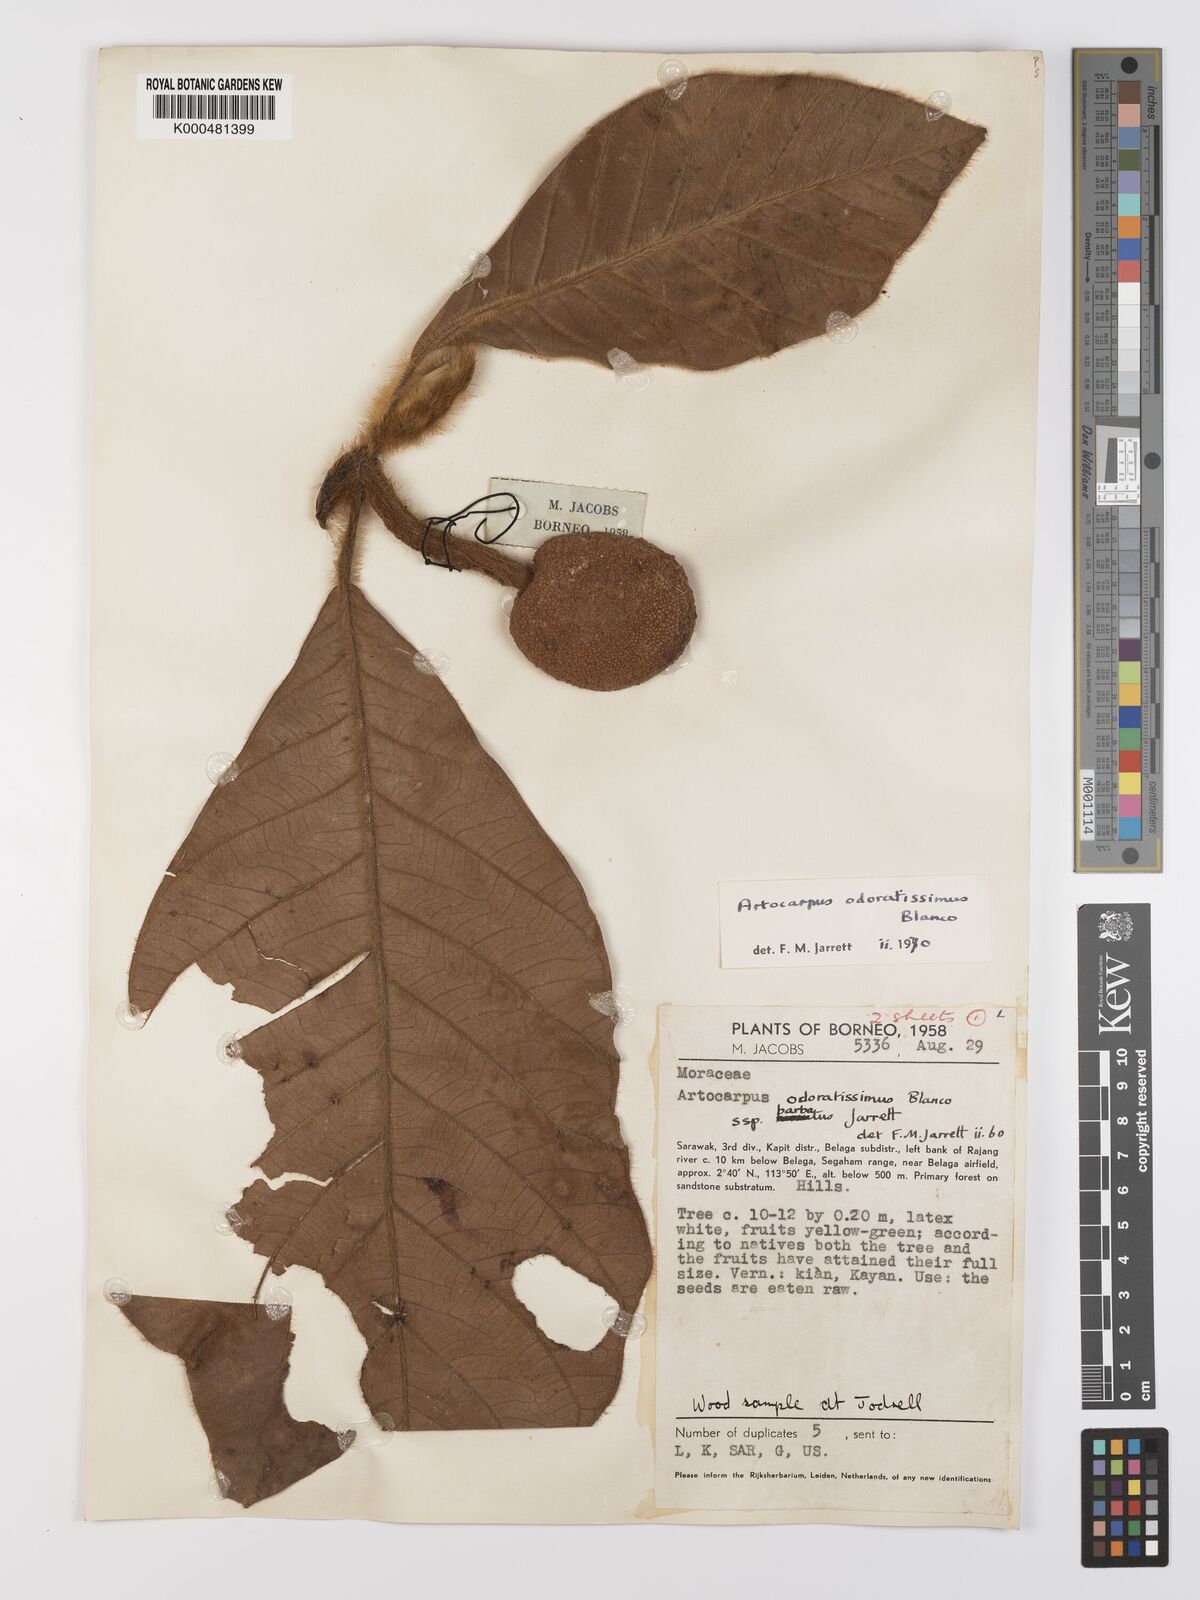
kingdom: Plantae
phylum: Tracheophyta
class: Magnoliopsida
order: Rosales
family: Moraceae
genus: Artocarpus
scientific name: Artocarpus odoratissimus
